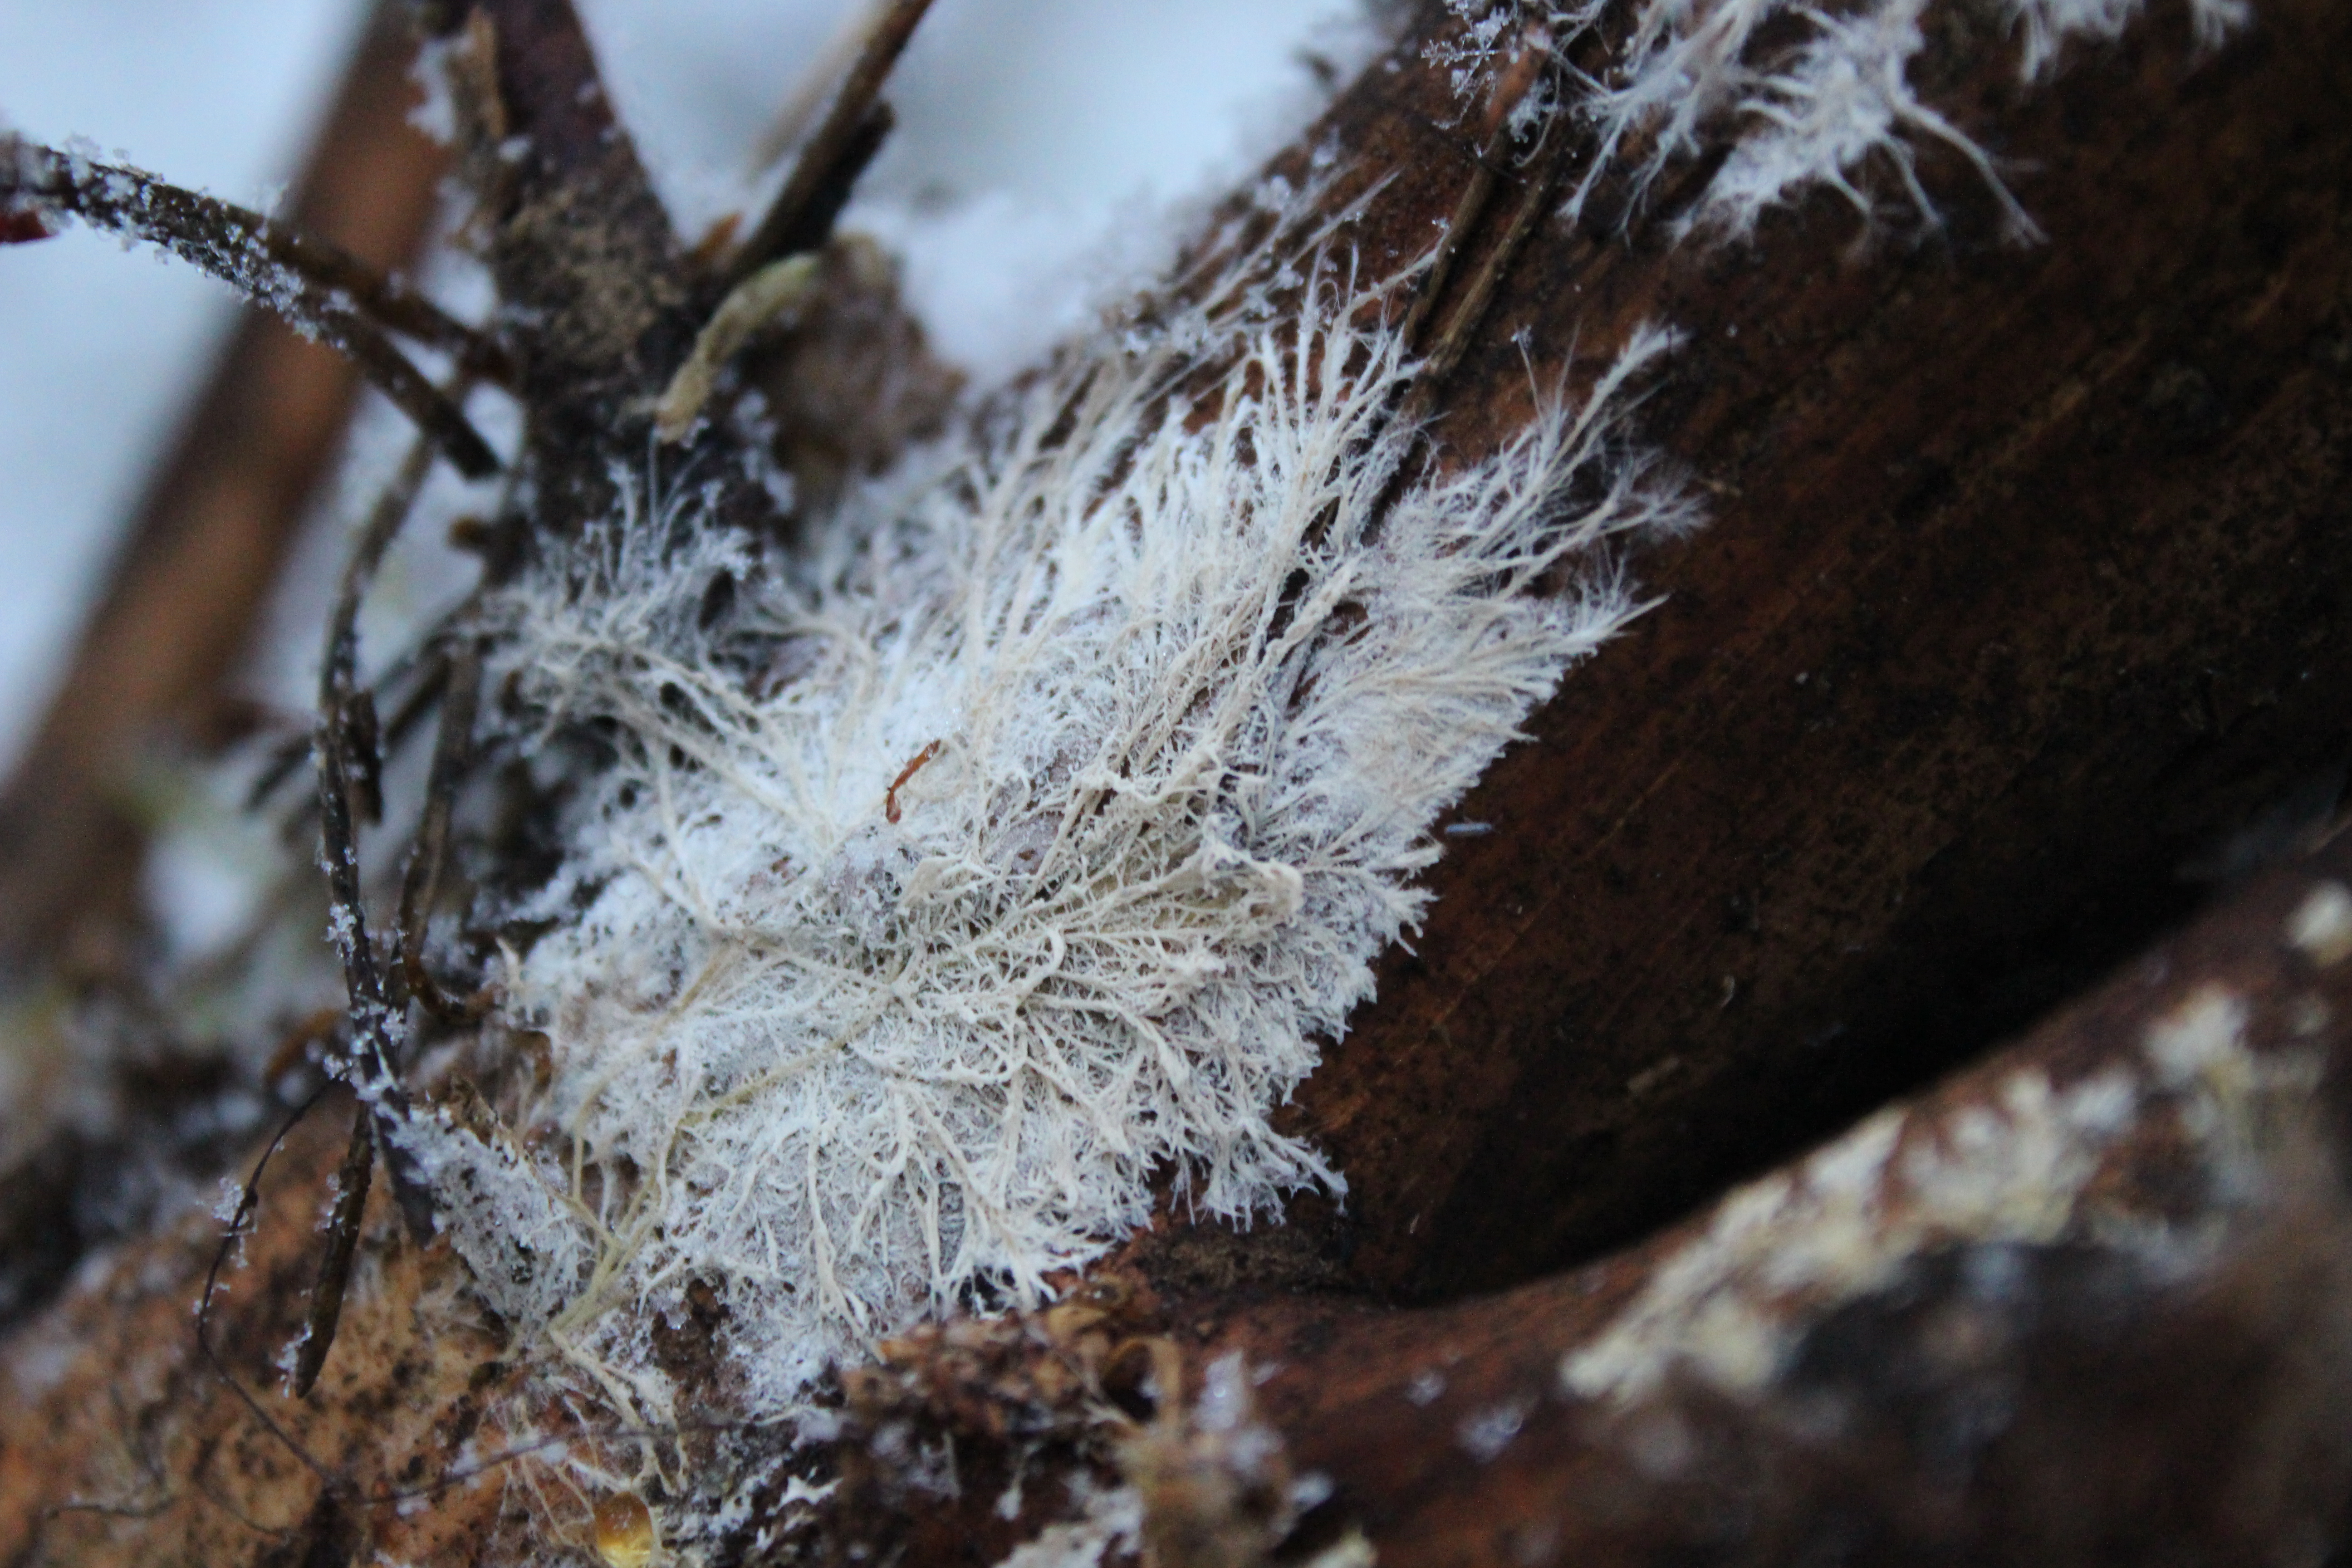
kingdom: Fungi
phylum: Basidiomycota
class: Agaricomycetes
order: Russulales
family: Xenasmataceae
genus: Xenasmatella
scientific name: Xenasmatella christiansenii
